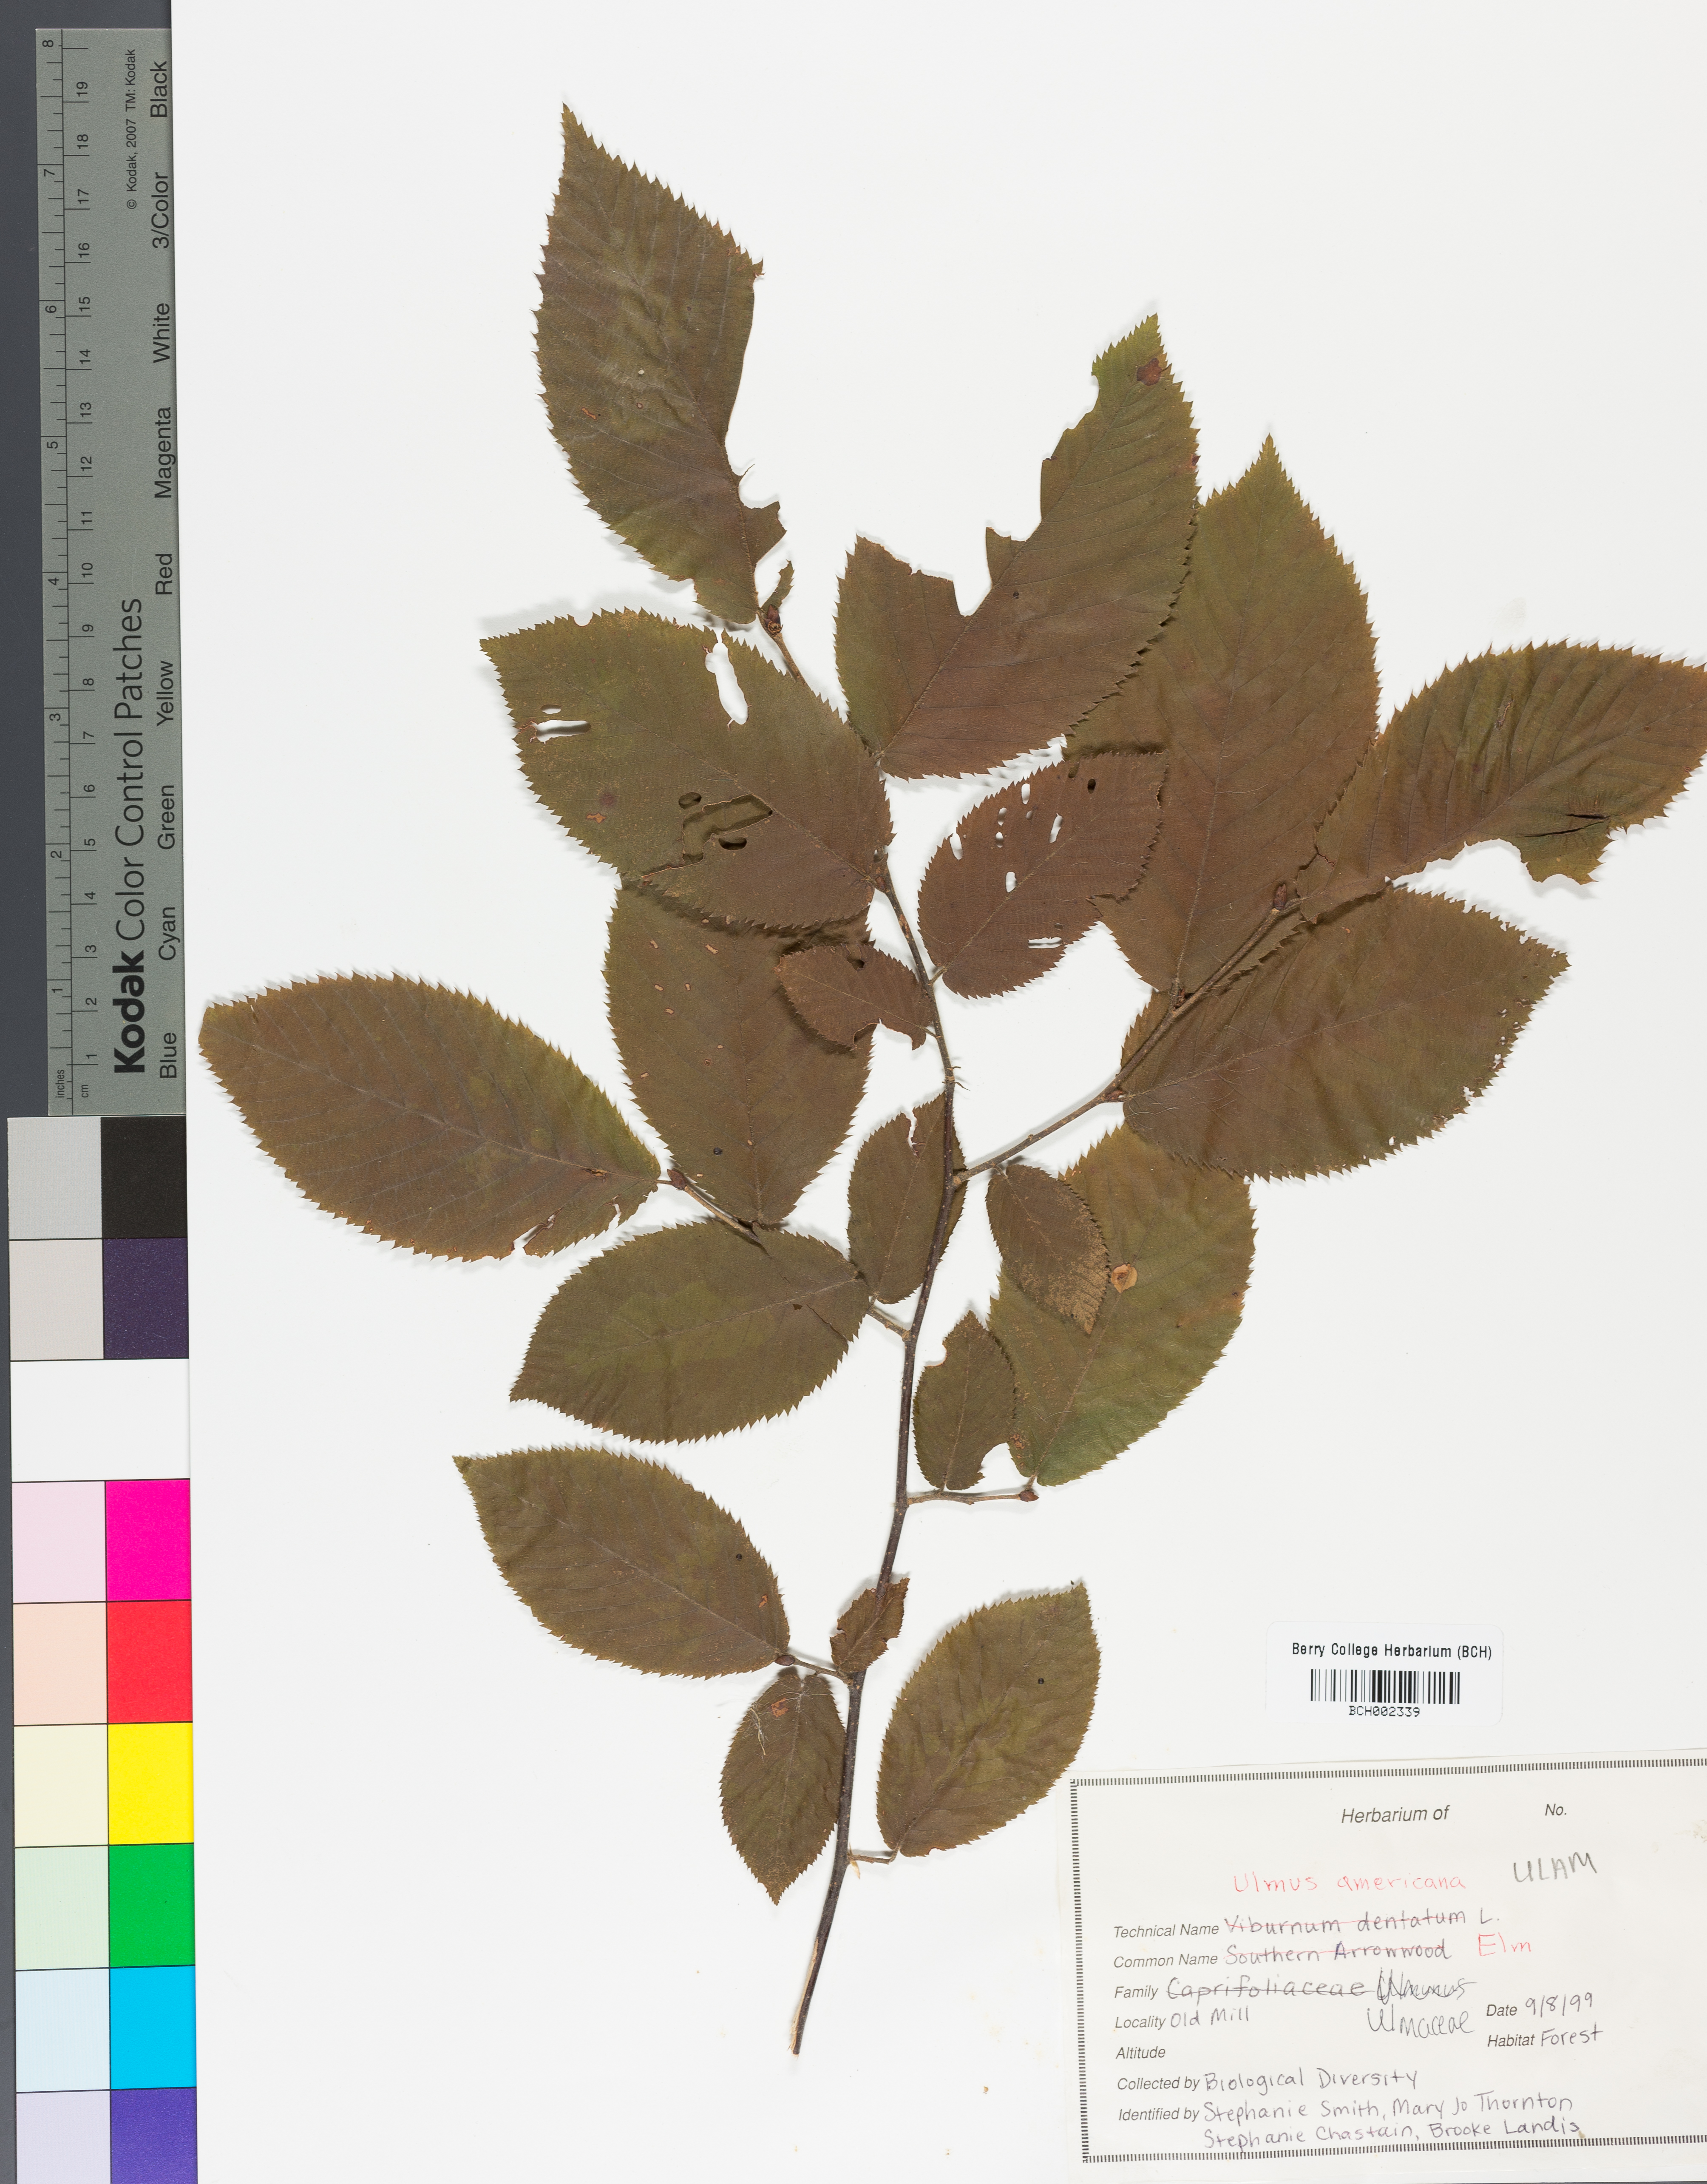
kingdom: Plantae
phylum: Tracheophyta
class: Magnoliopsida
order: Rosales
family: Ulmaceae
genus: Ulmus
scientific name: Ulmus americana
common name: American elm
